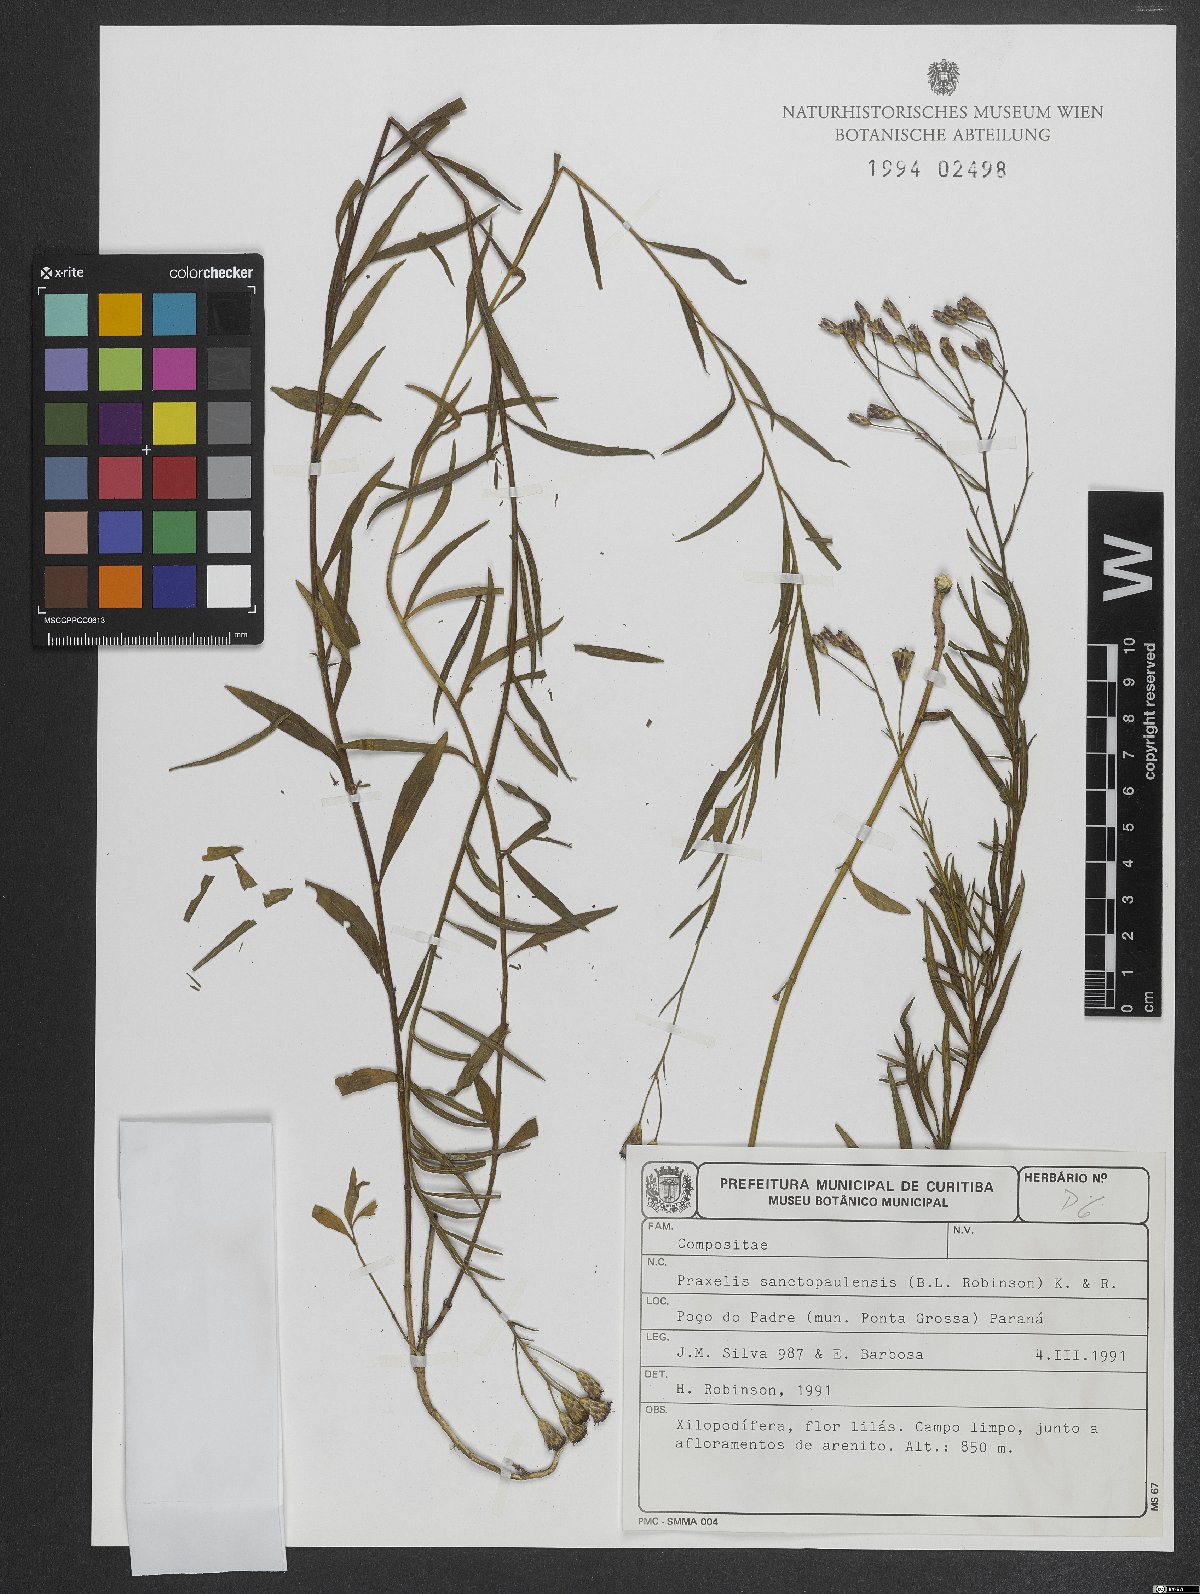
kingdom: Plantae
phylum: Tracheophyta
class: Magnoliopsida
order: Asterales
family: Asteraceae
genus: Praxelis
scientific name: Praxelis sanctopaulensis
